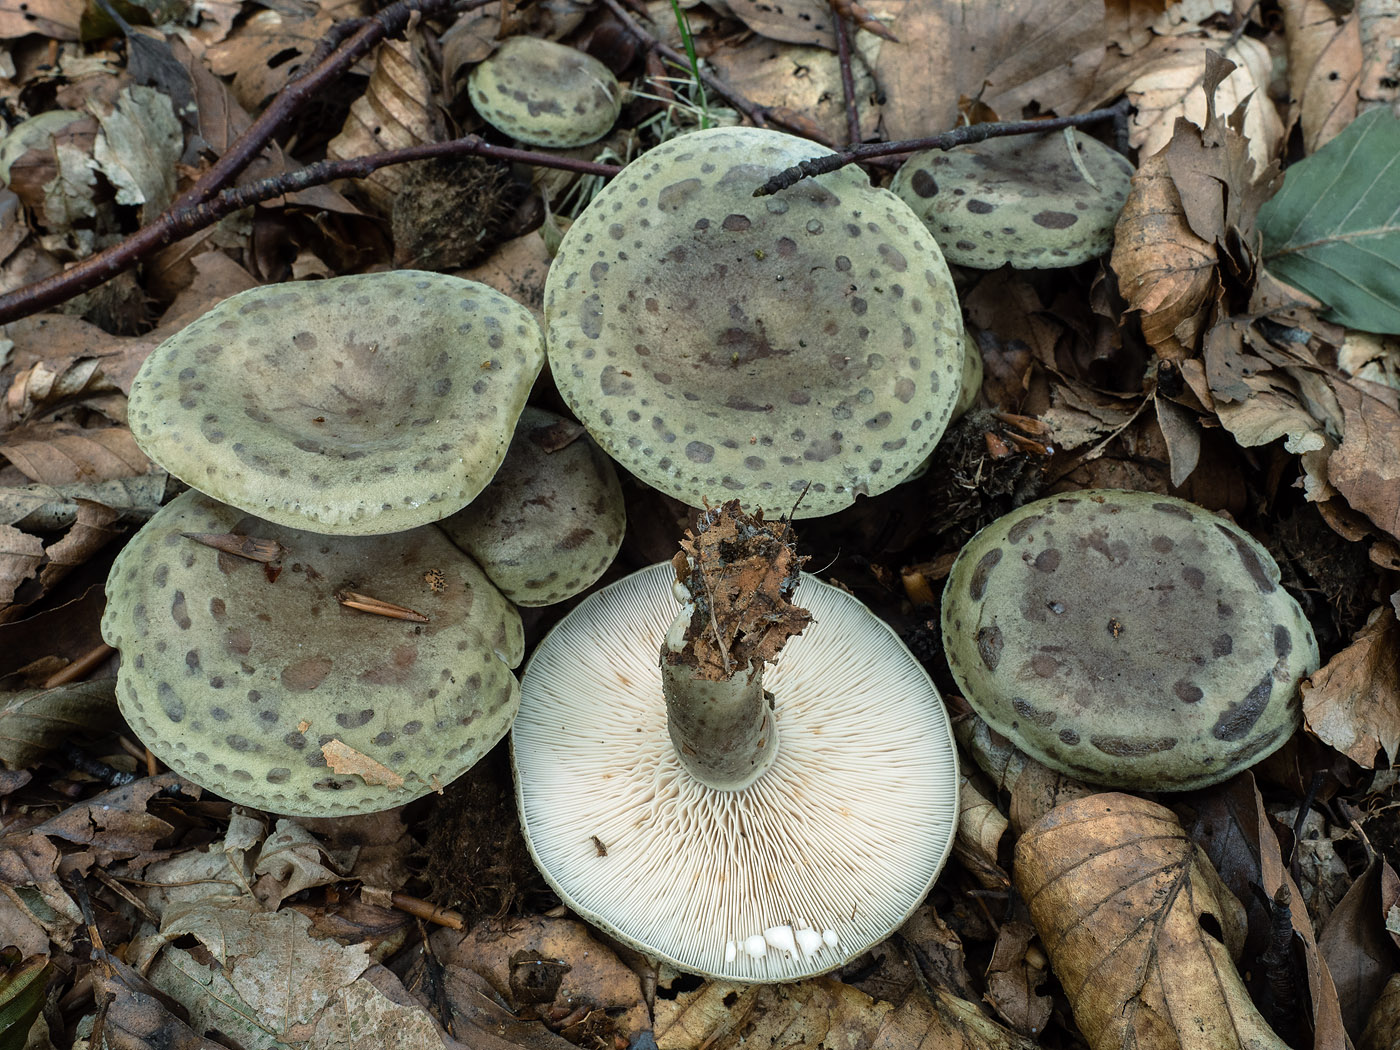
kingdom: Fungi
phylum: Basidiomycota
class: Agaricomycetes
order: Russulales
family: Russulaceae
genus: Lactarius
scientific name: Lactarius blennius
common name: dråbeplettet mælkehat
